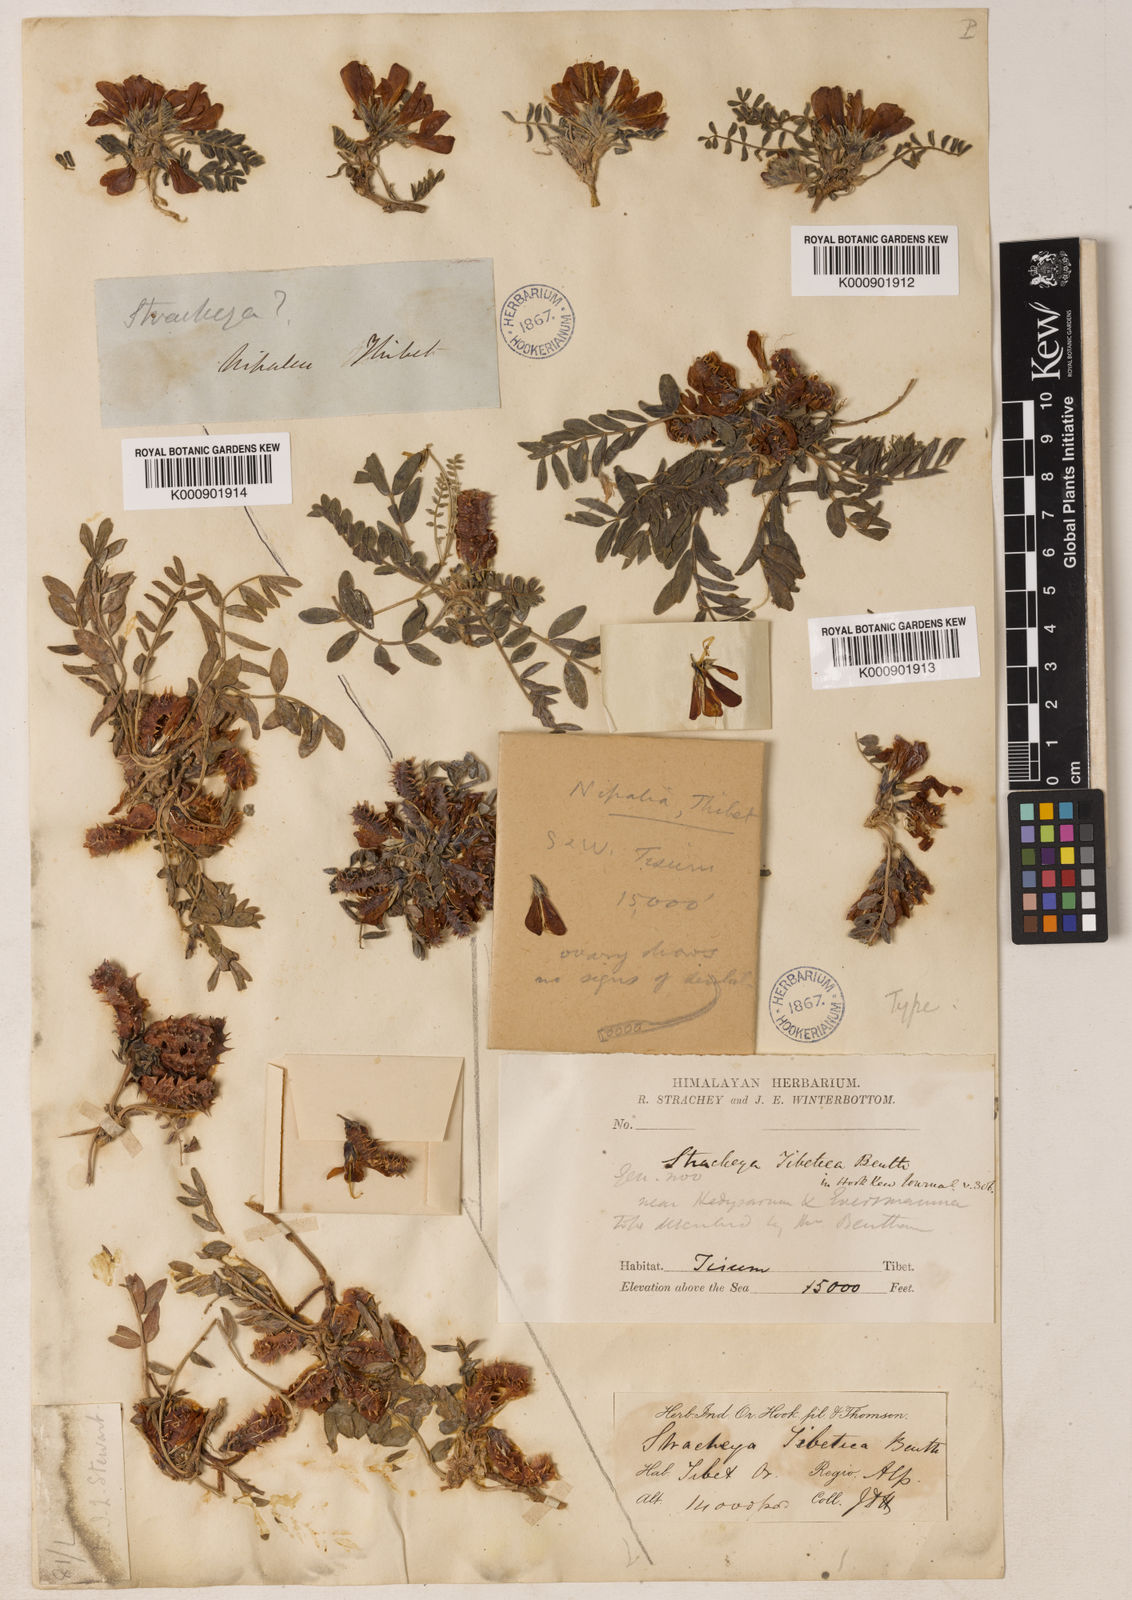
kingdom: Plantae
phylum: Tracheophyta
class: Magnoliopsida
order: Fabales
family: Fabaceae
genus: Hedysarum
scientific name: Hedysarum tibeticum
